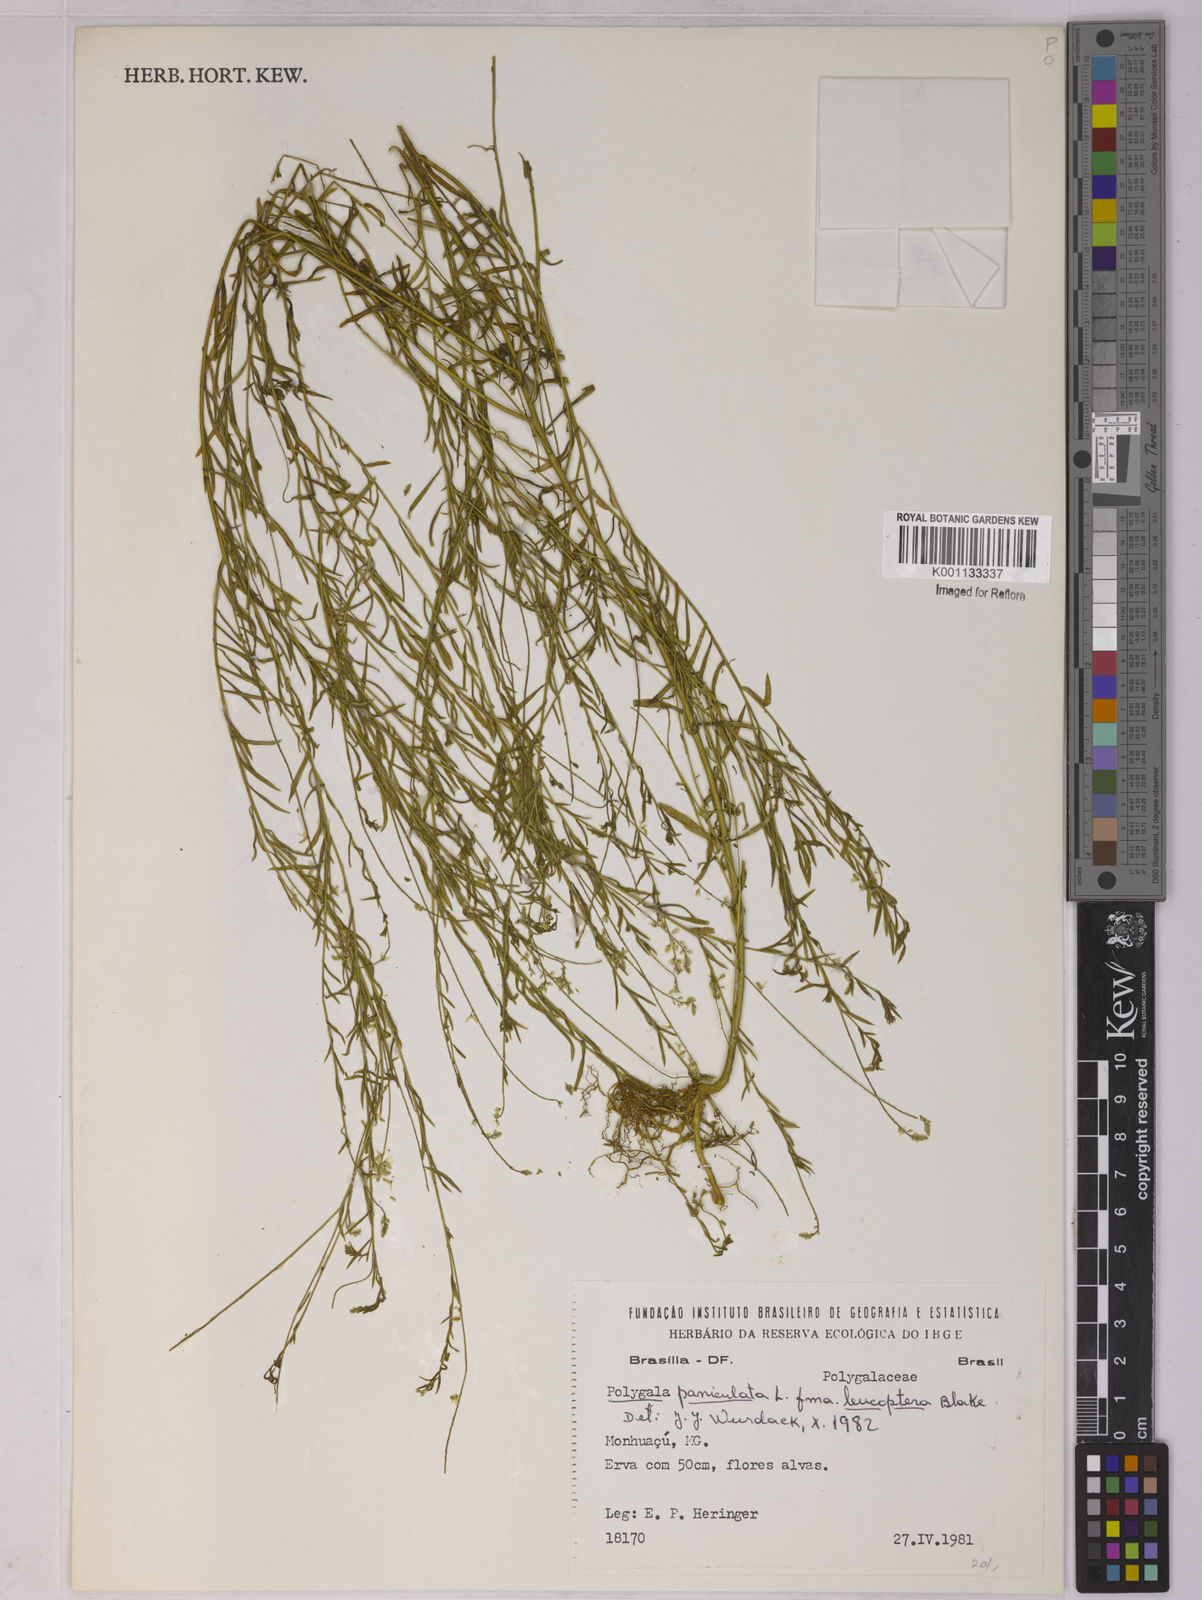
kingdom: Plantae
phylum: Tracheophyta
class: Magnoliopsida
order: Fabales
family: Polygalaceae
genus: Polygala
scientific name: Polygala paniculata
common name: Orosne
